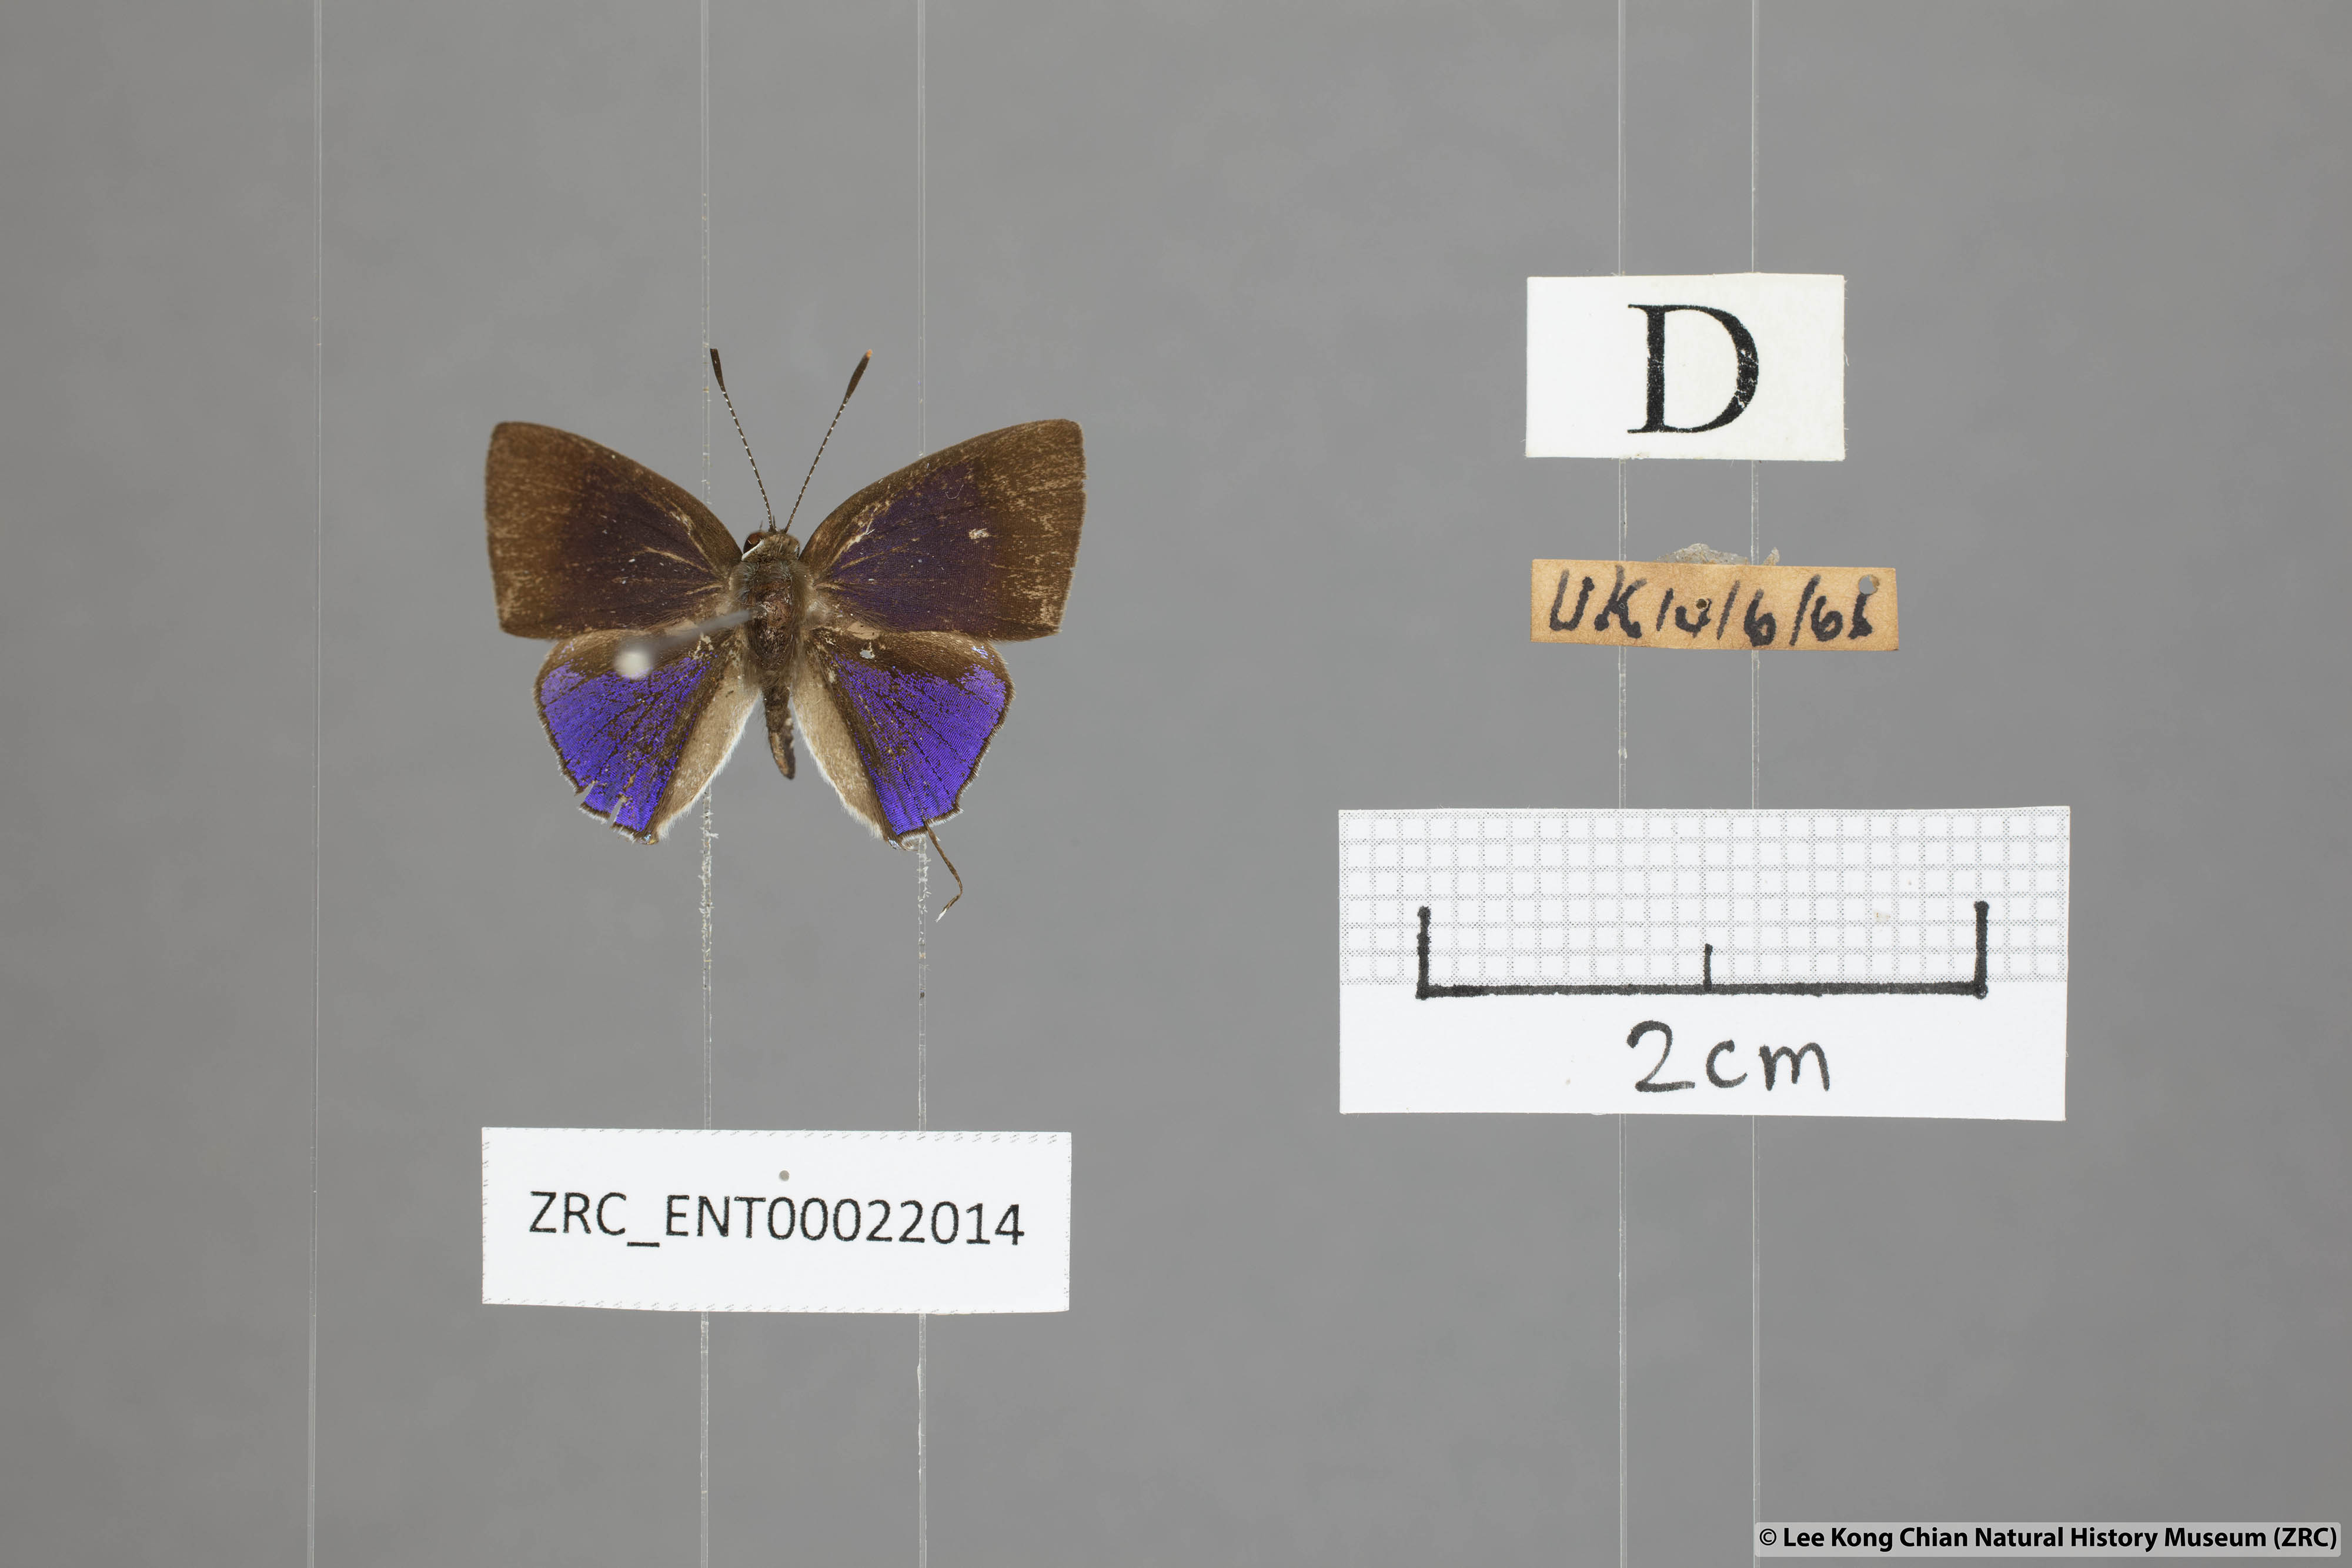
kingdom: Animalia
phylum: Arthropoda
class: Insecta
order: Lepidoptera
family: Lycaenidae
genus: Sinthusa
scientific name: Sinthusa nasaka
